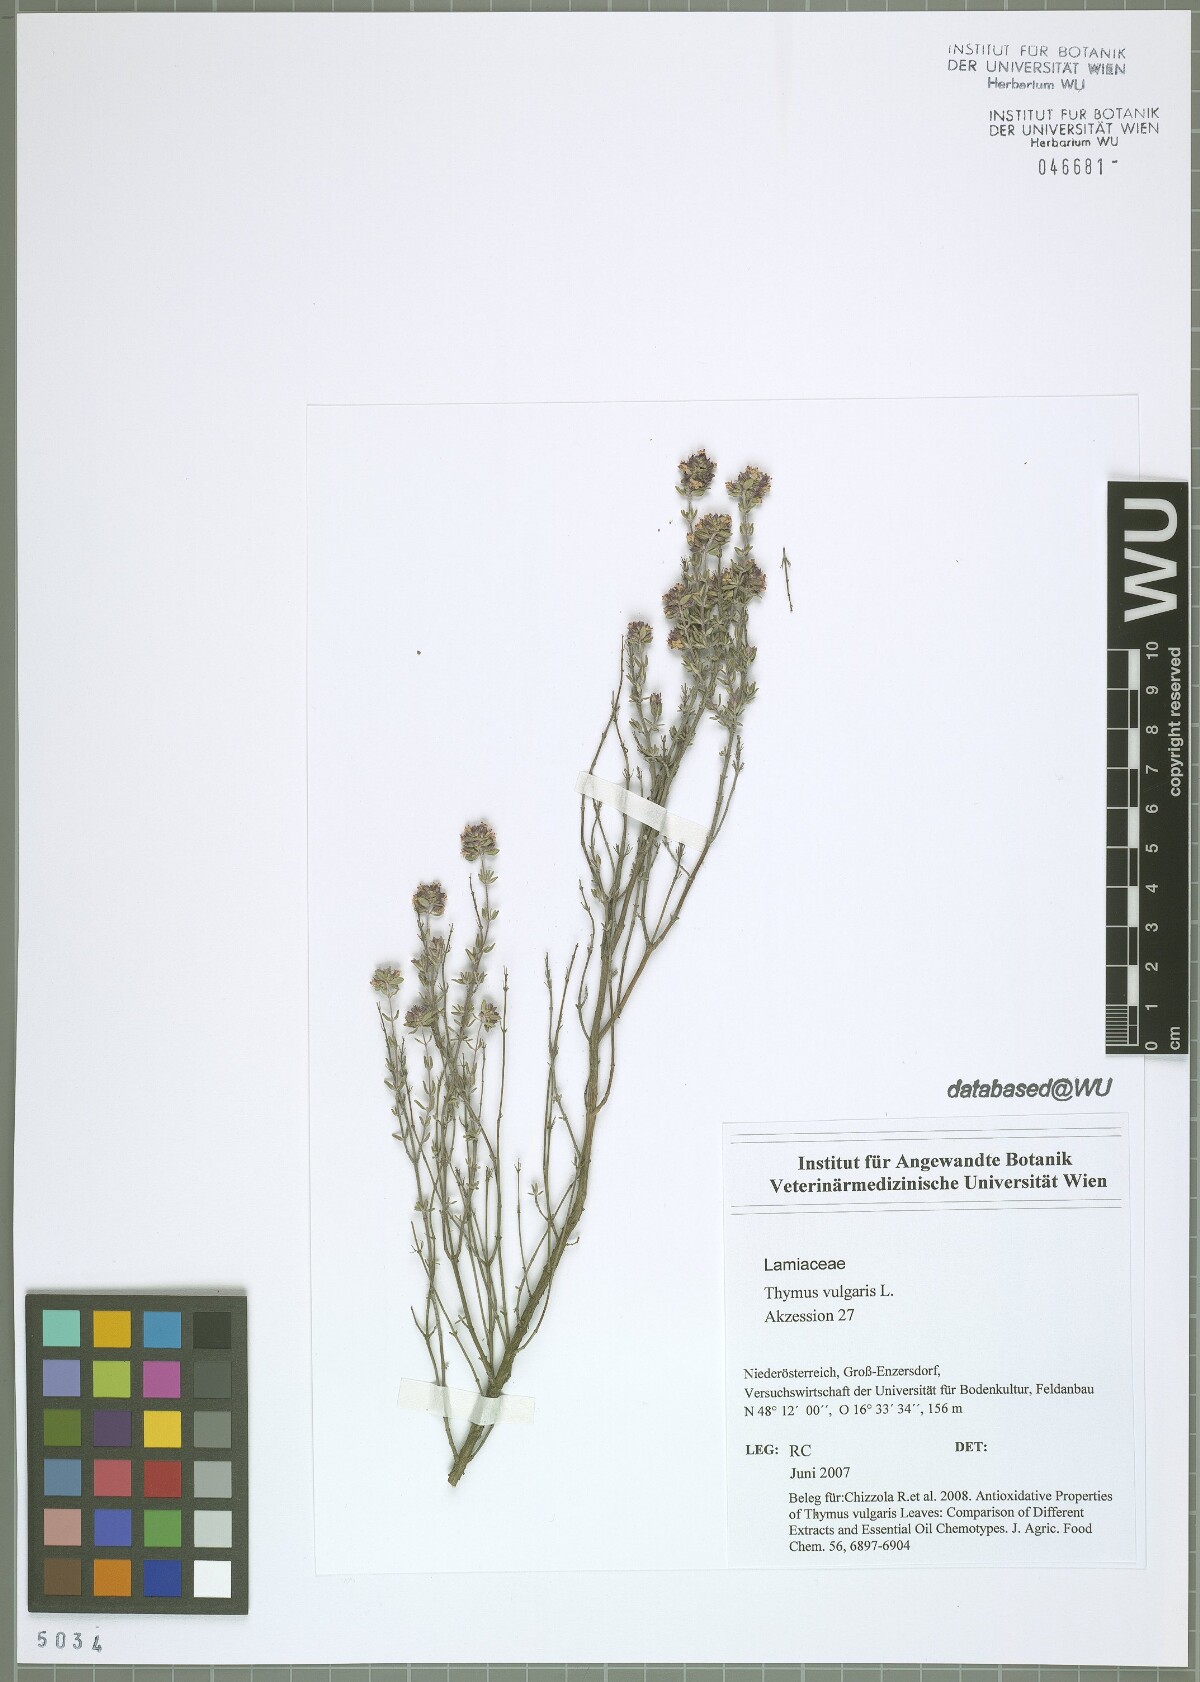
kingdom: Plantae
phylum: Tracheophyta
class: Magnoliopsida
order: Lamiales
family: Lamiaceae
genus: Thymus
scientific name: Thymus vulgaris
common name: Garden thyme
